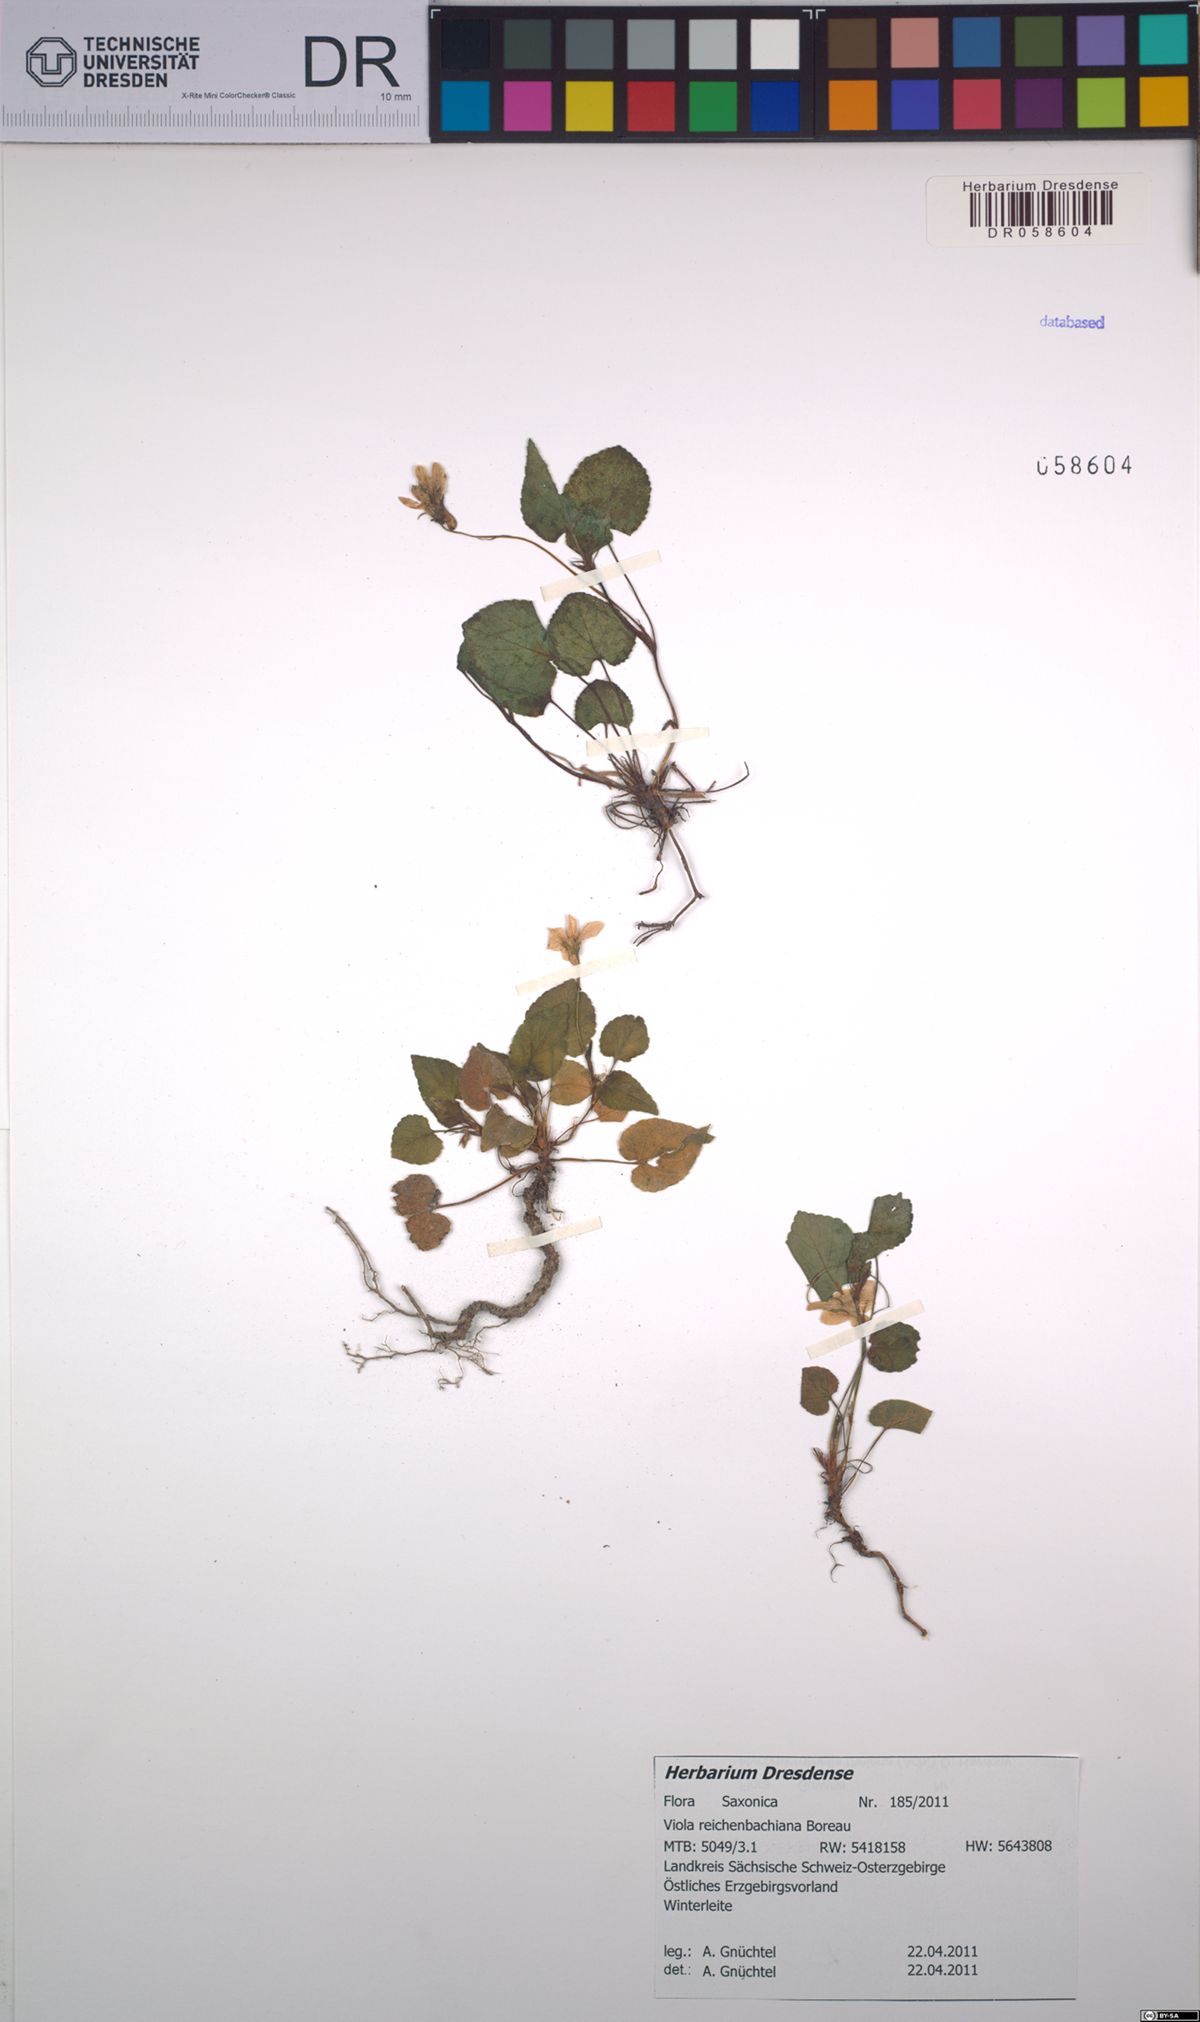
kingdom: Plantae
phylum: Tracheophyta
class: Magnoliopsida
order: Malpighiales
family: Violaceae
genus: Viola
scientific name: Viola reichenbachiana
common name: Early dog-violet
